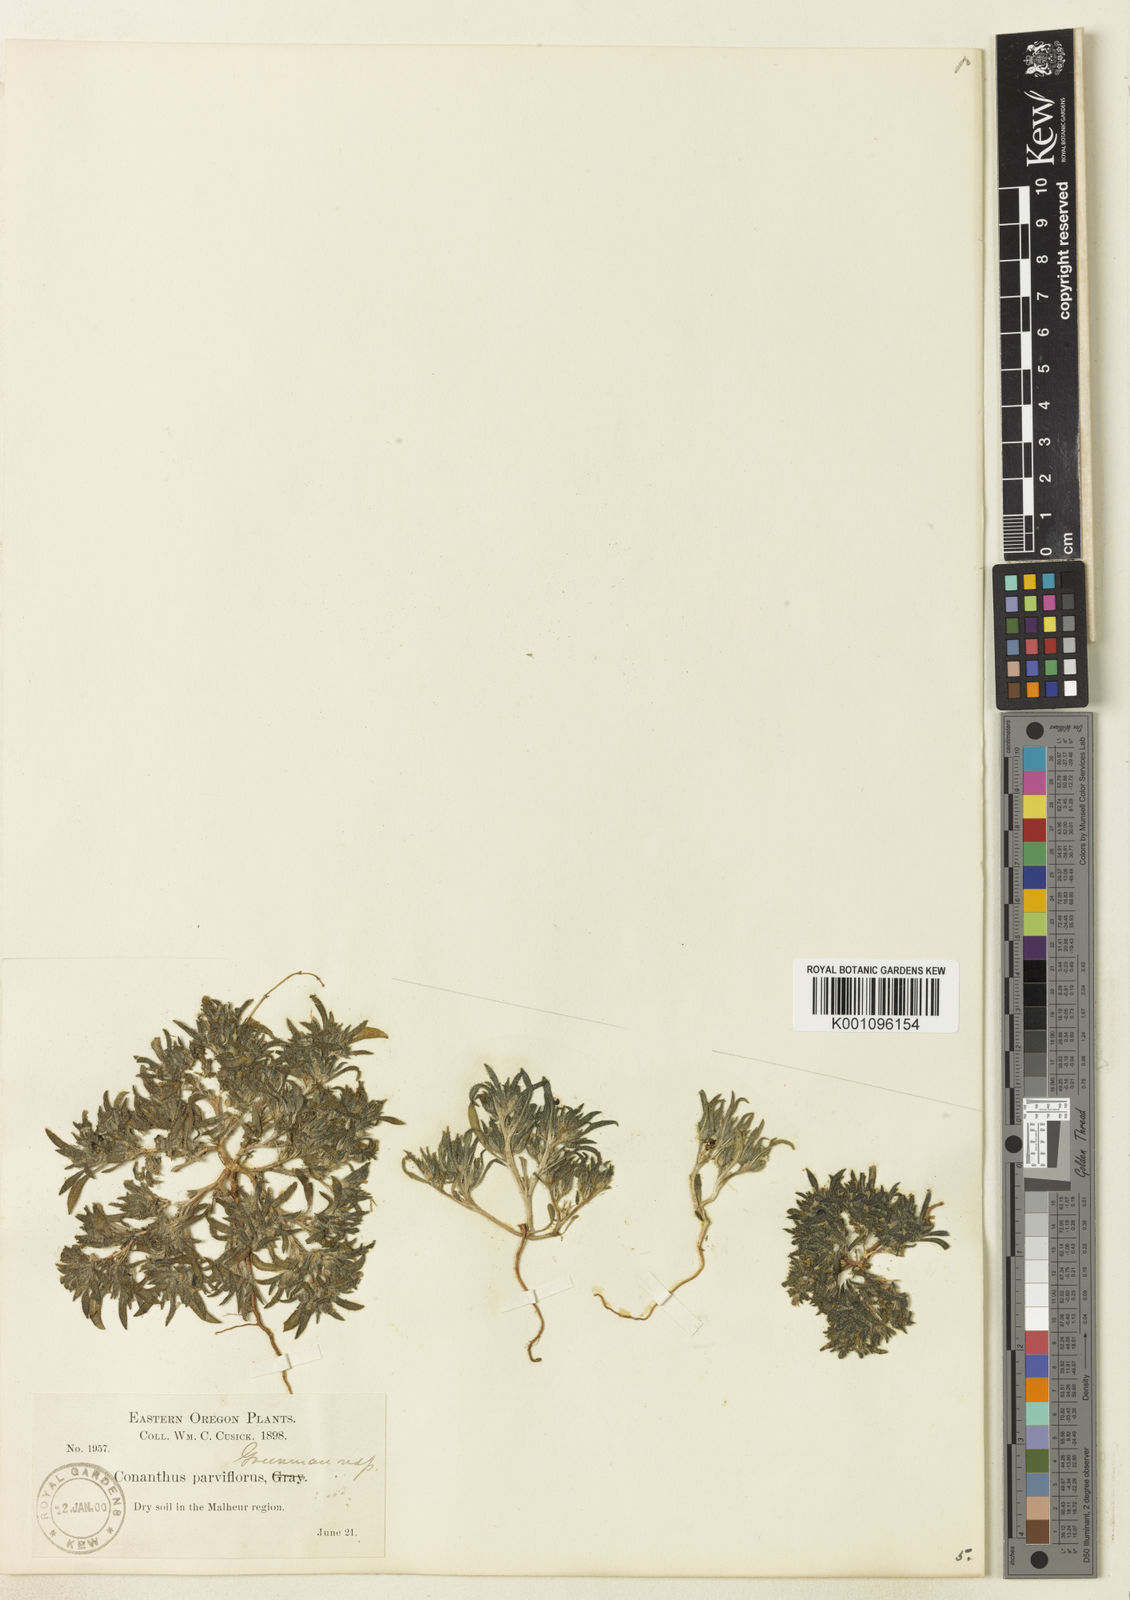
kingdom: Plantae
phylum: Tracheophyta
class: Magnoliopsida
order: Boraginales
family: Namaceae
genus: Nama
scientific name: Nama densa
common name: Leafy nama
